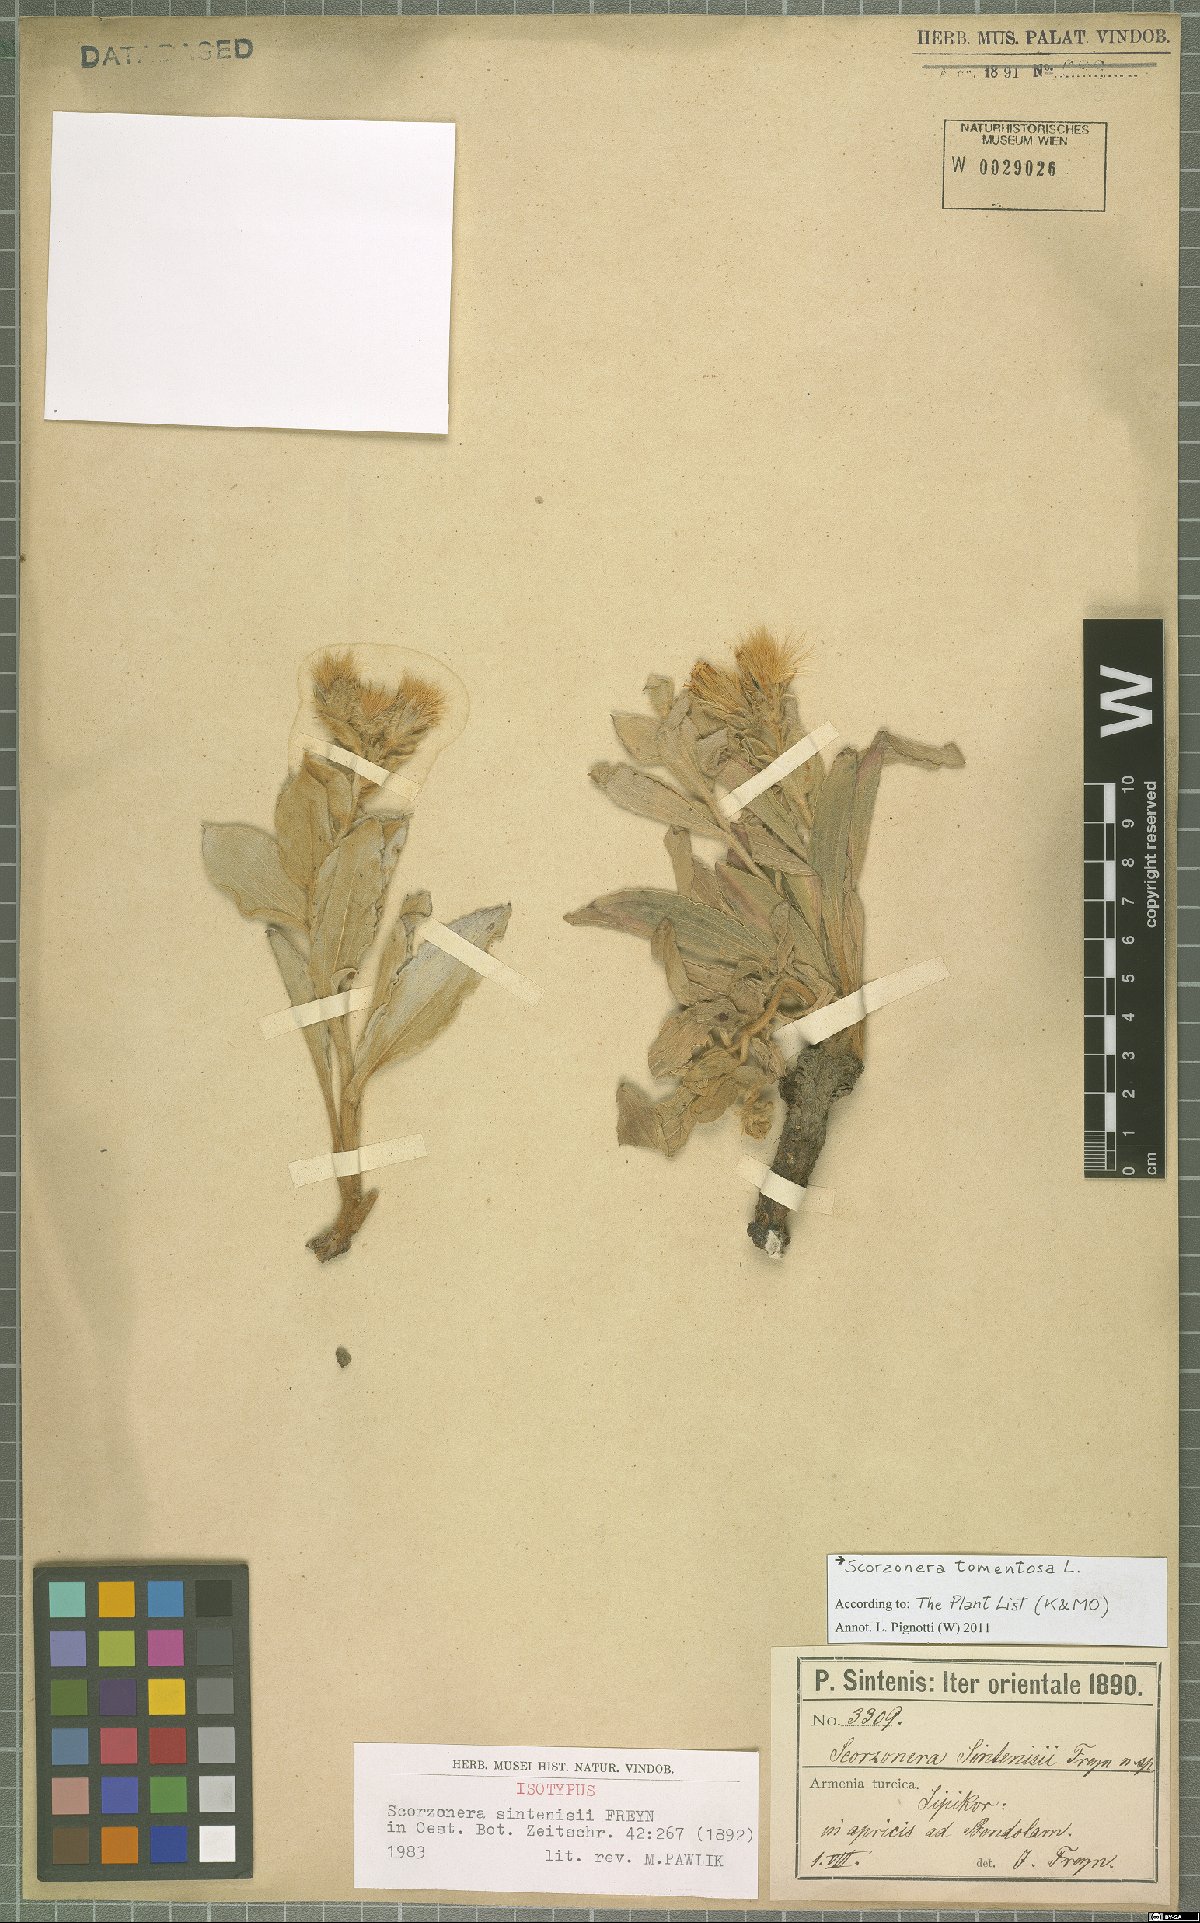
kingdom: Plantae
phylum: Tracheophyta
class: Magnoliopsida
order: Asterales
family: Asteraceae
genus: Guneria
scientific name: Guneria tomentosa
